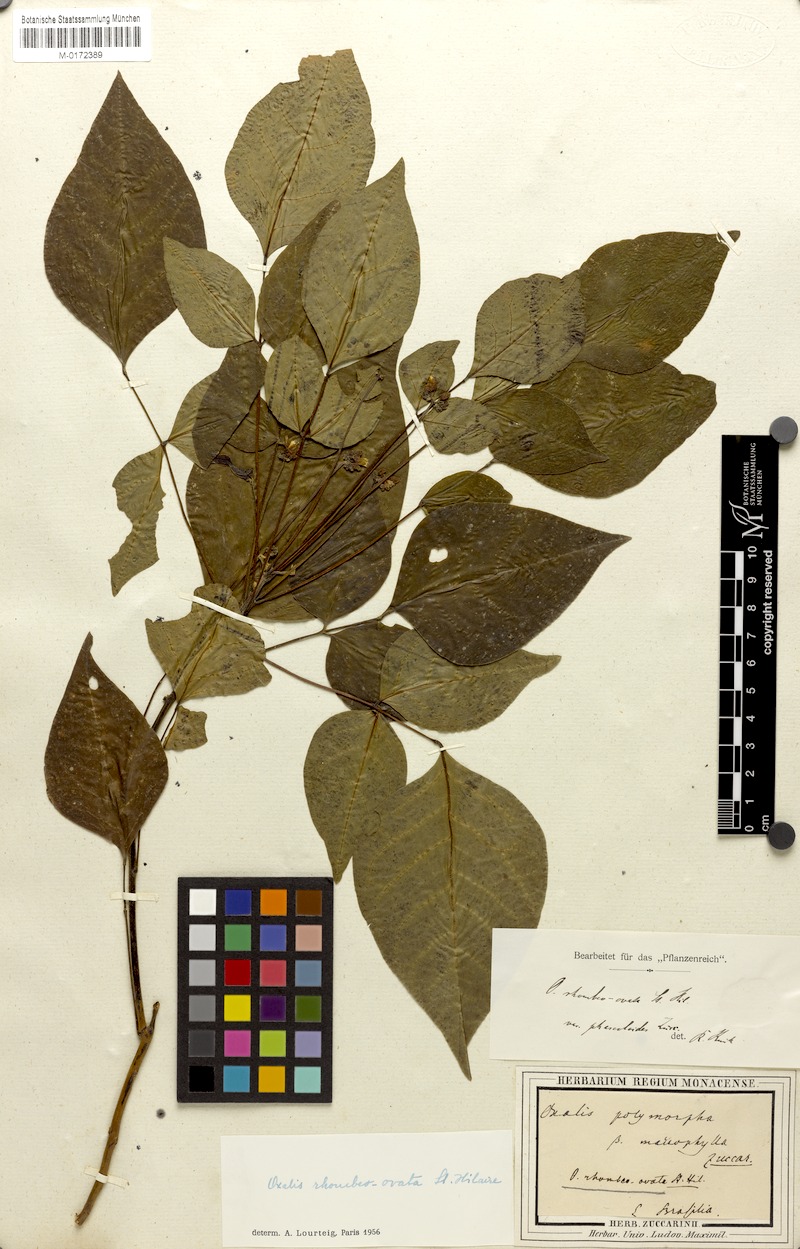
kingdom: Plantae
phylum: Tracheophyta
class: Magnoliopsida
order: Oxalidales
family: Oxalidaceae
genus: Oxalis
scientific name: Oxalis rhombeo-ovata
